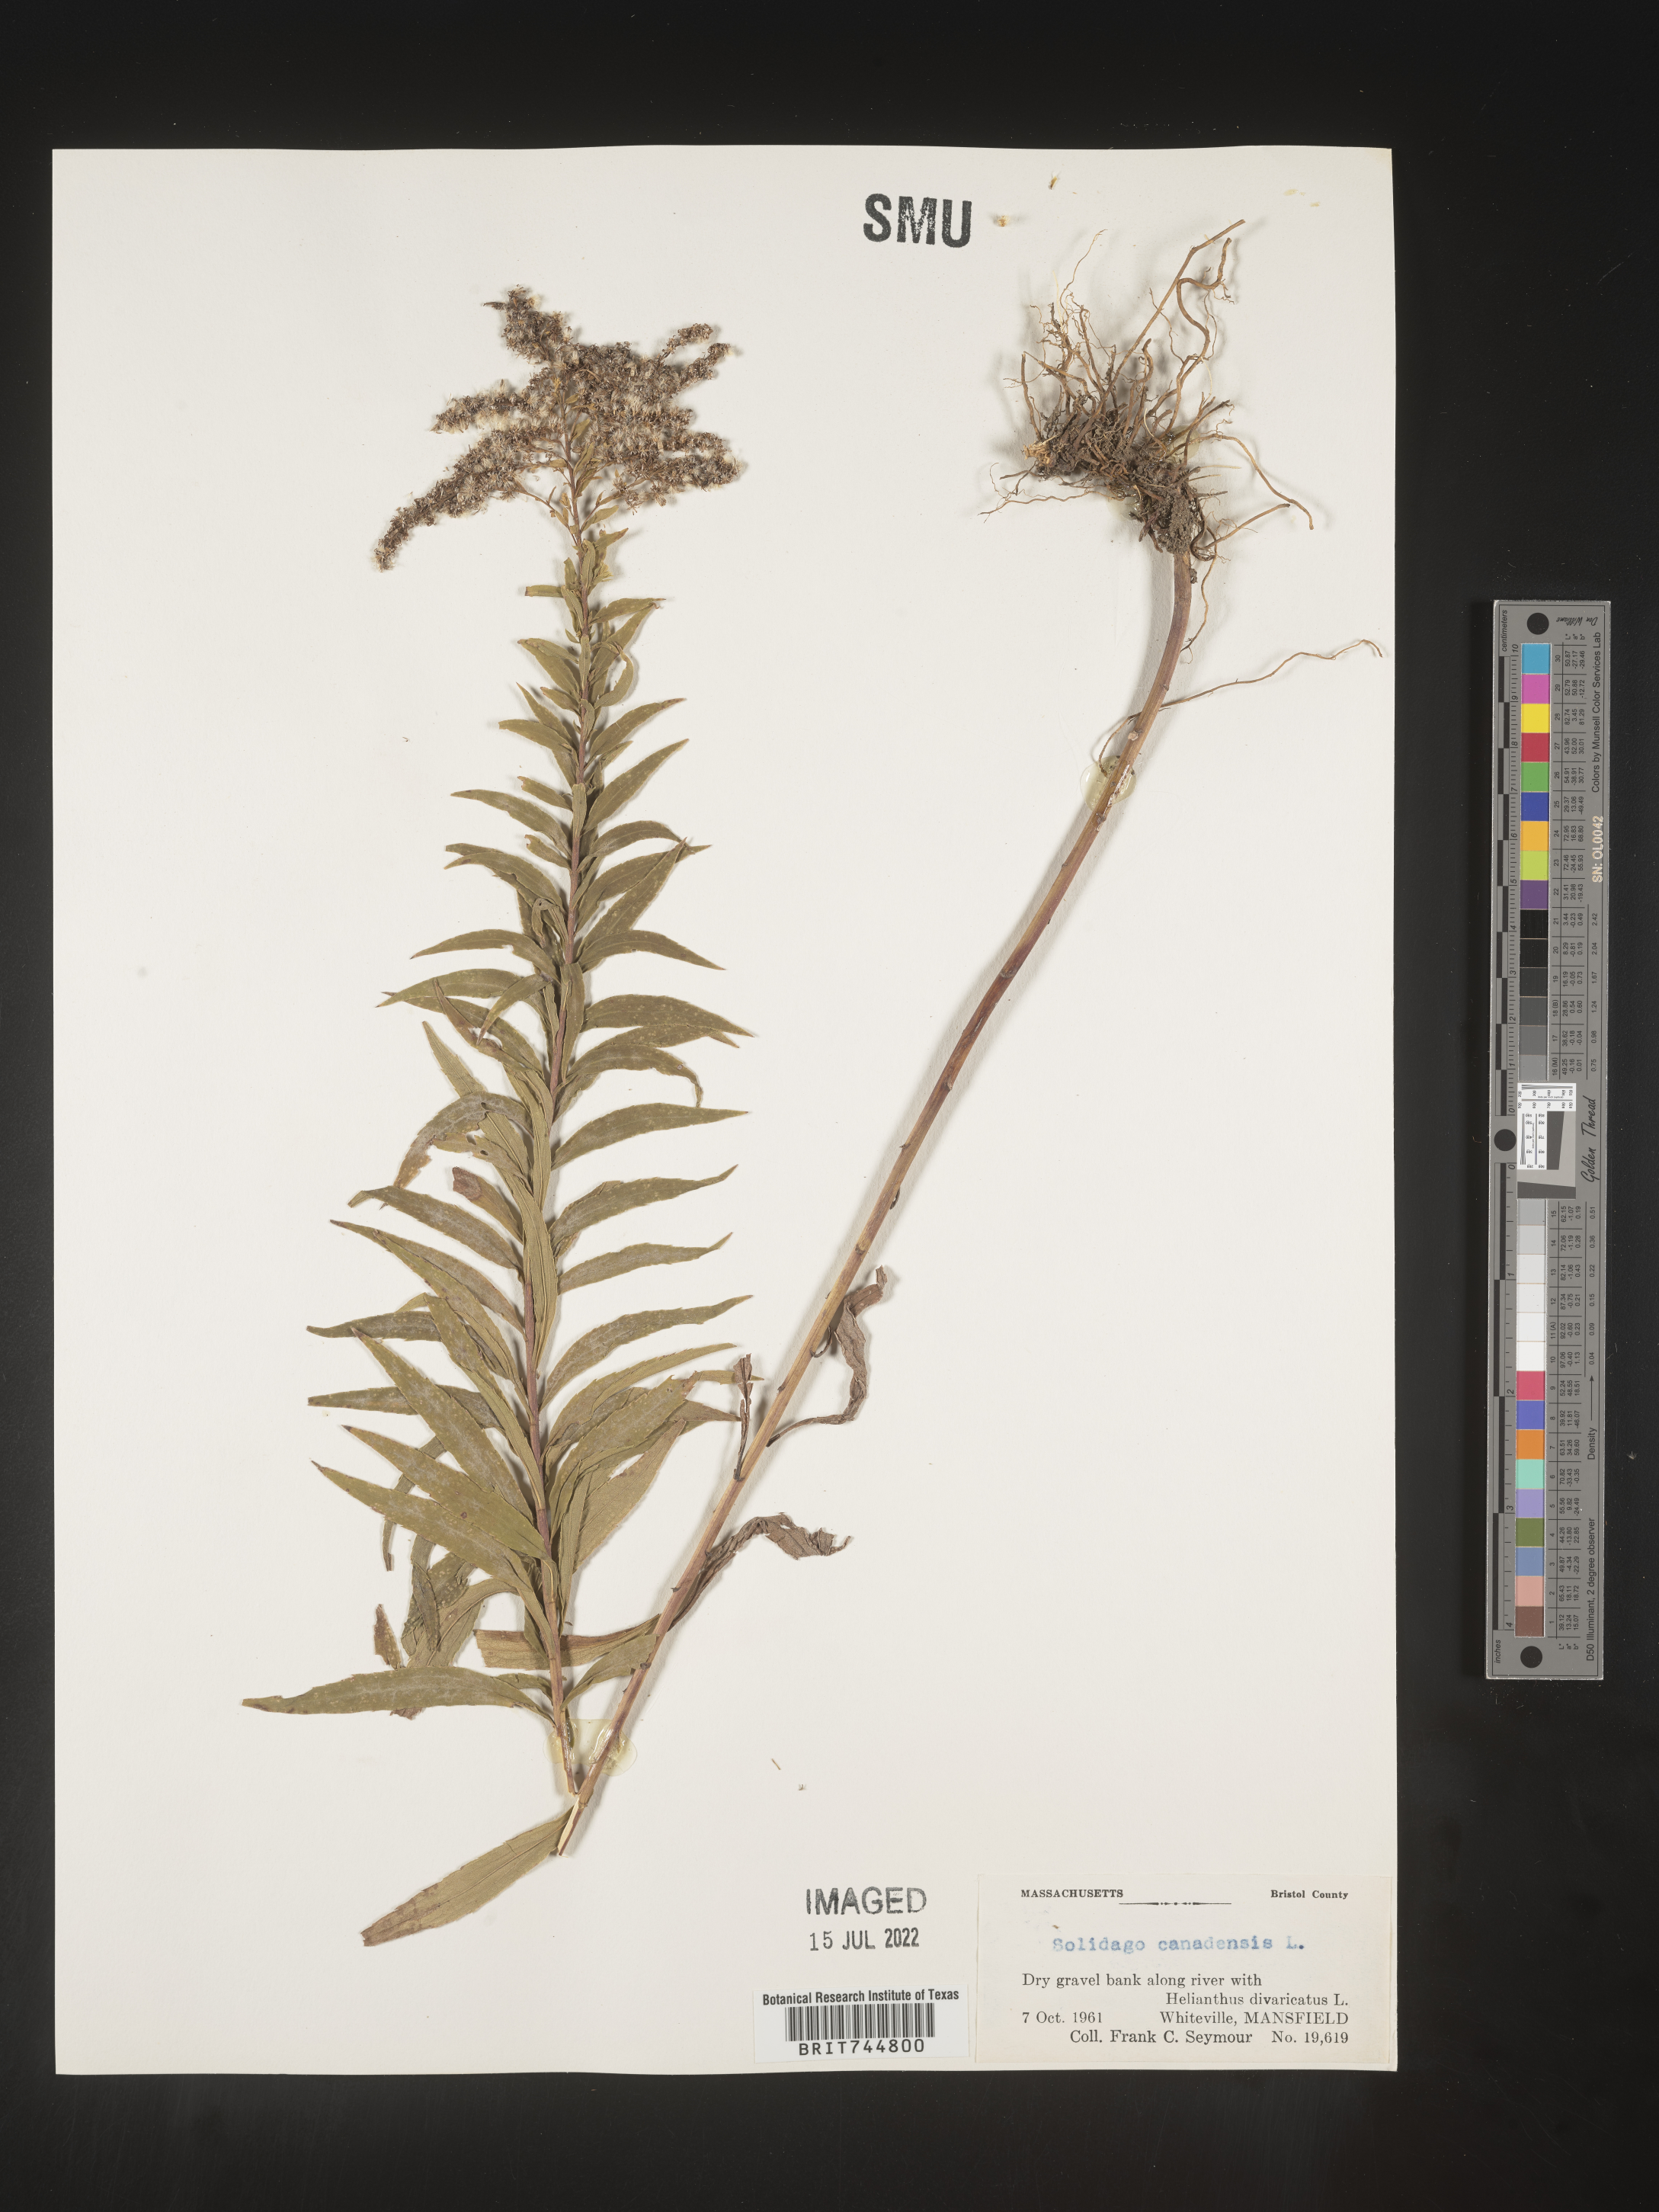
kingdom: Plantae
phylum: Tracheophyta
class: Magnoliopsida
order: Asterales
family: Asteraceae
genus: Solidago
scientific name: Solidago canadensis
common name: Canada goldenrod
